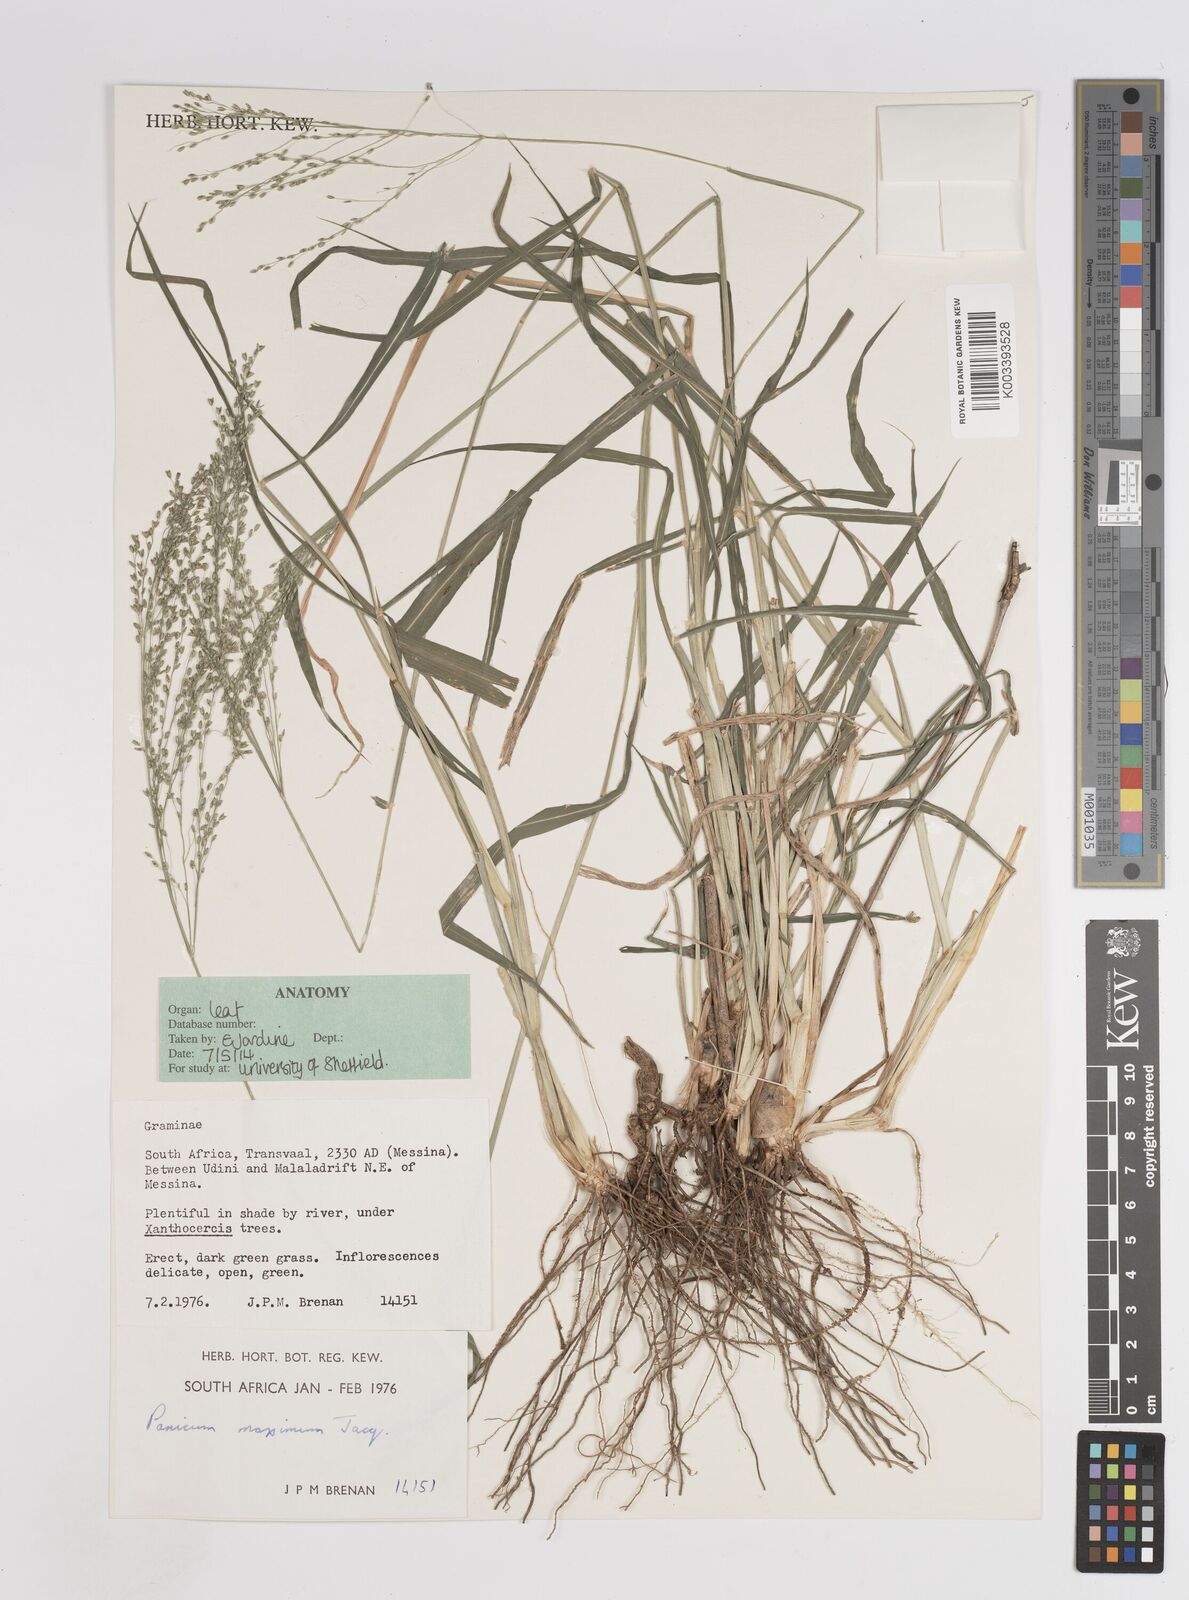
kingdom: Plantae
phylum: Tracheophyta
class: Liliopsida
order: Poales
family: Poaceae
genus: Megathyrsus
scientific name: Megathyrsus maximus
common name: Guineagrass
